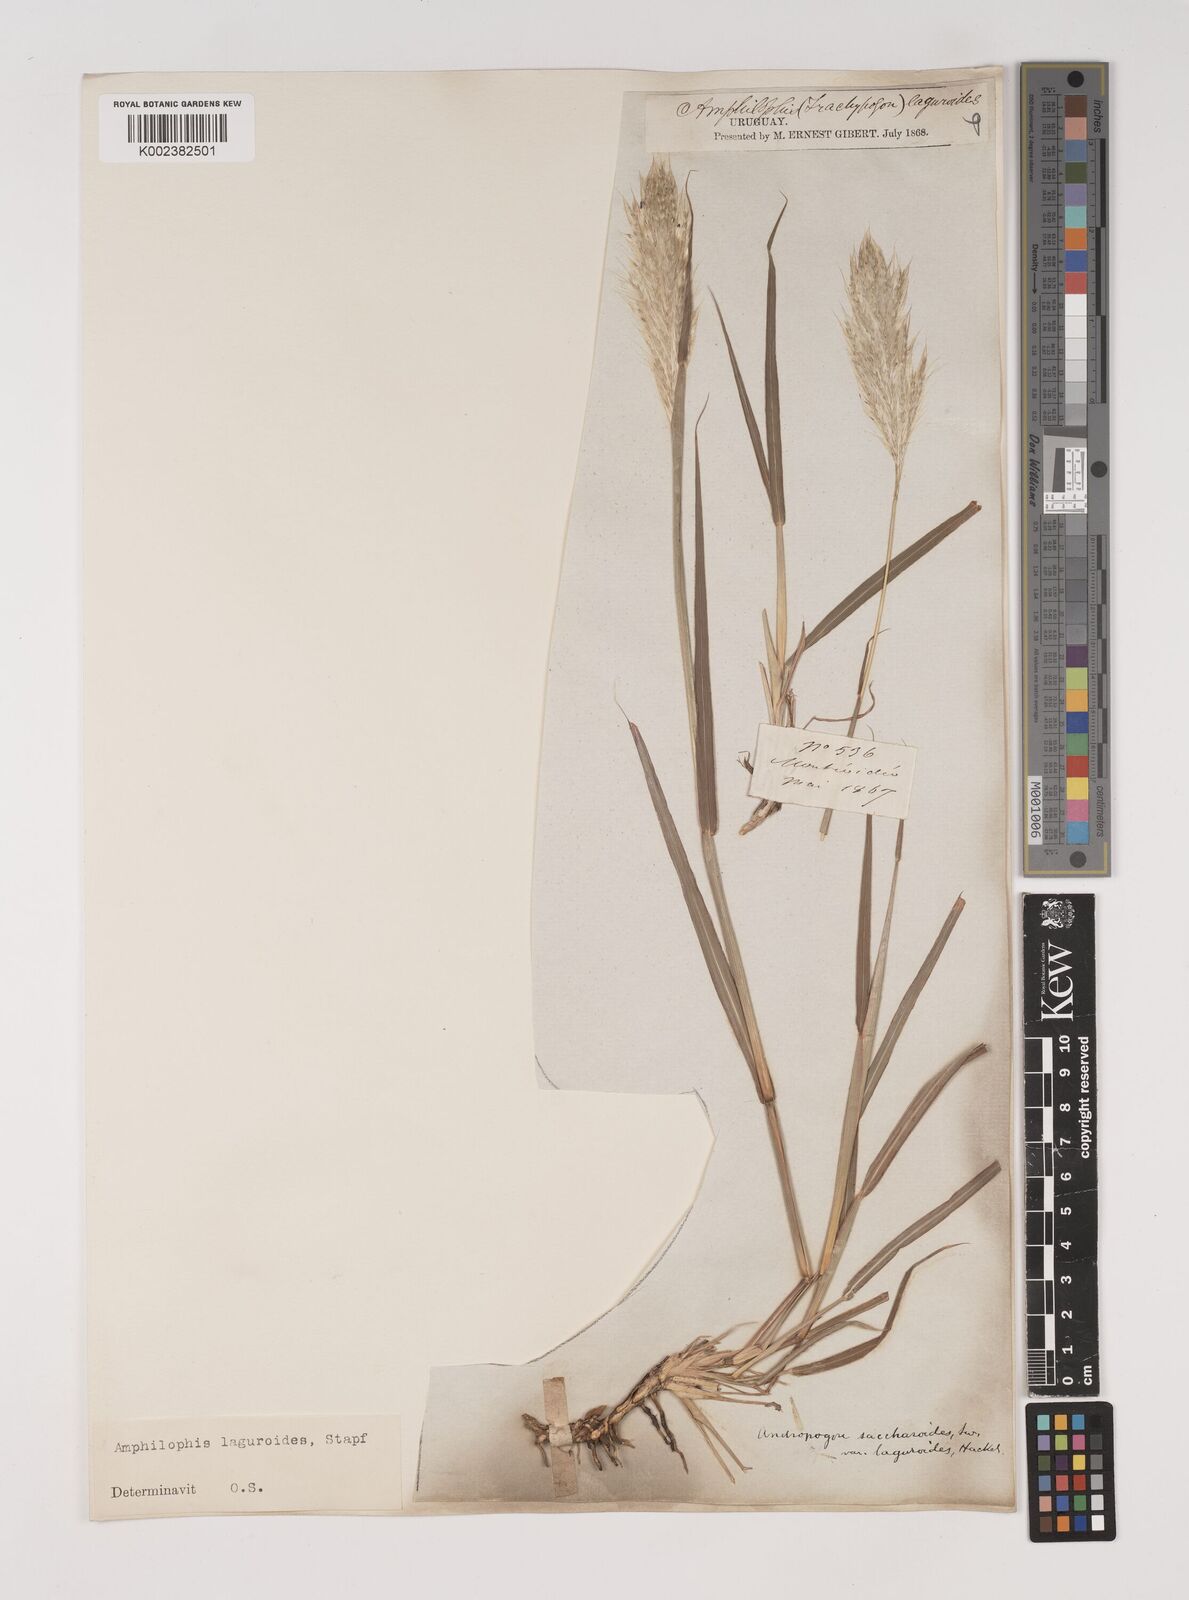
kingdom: Plantae
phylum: Tracheophyta
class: Liliopsida
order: Poales
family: Poaceae
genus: Bothriochloa
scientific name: Bothriochloa laguroides
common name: Silver bluestem
